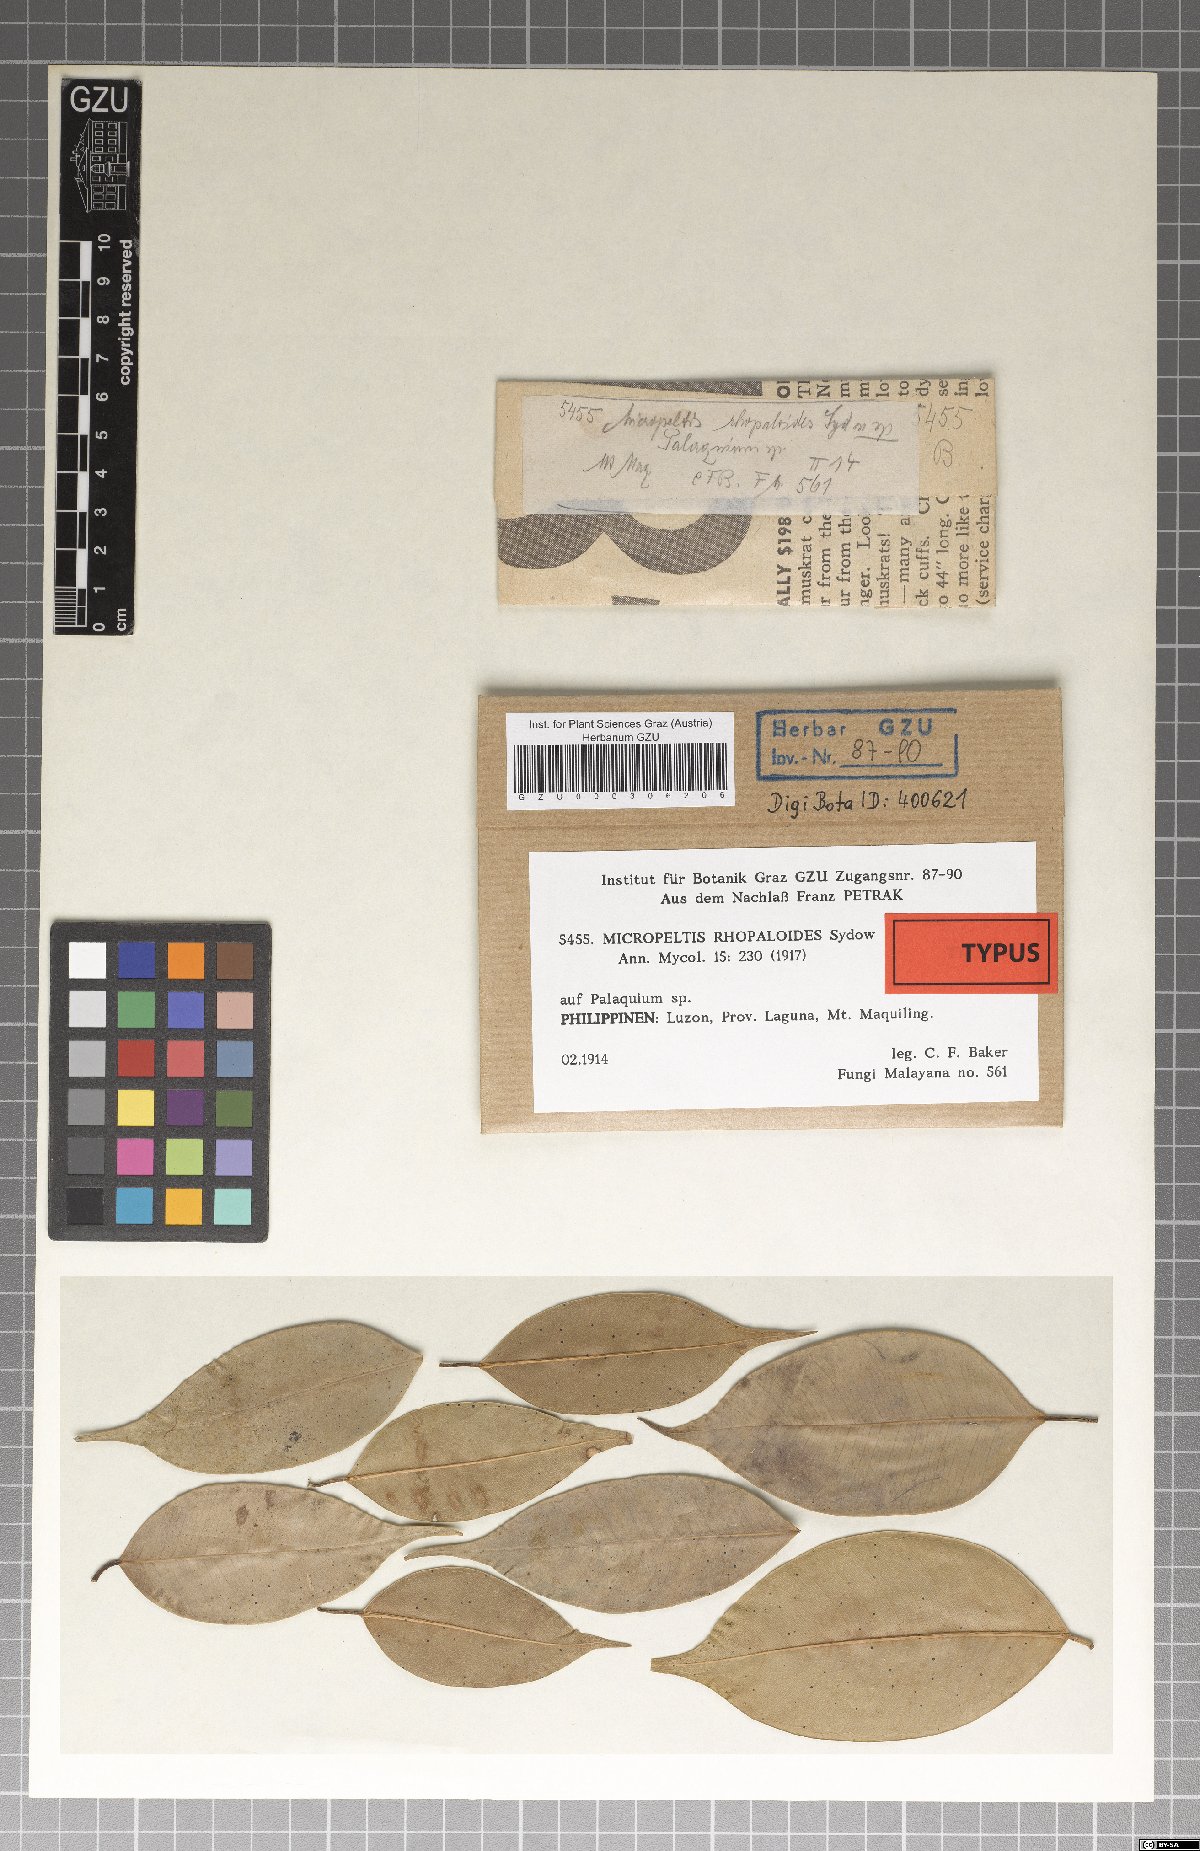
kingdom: Fungi
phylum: Ascomycota
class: Dothideomycetes
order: Microthyriales
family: Micropeltidaceae
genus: Micropeltis
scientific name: Micropeltis rhopaloides
